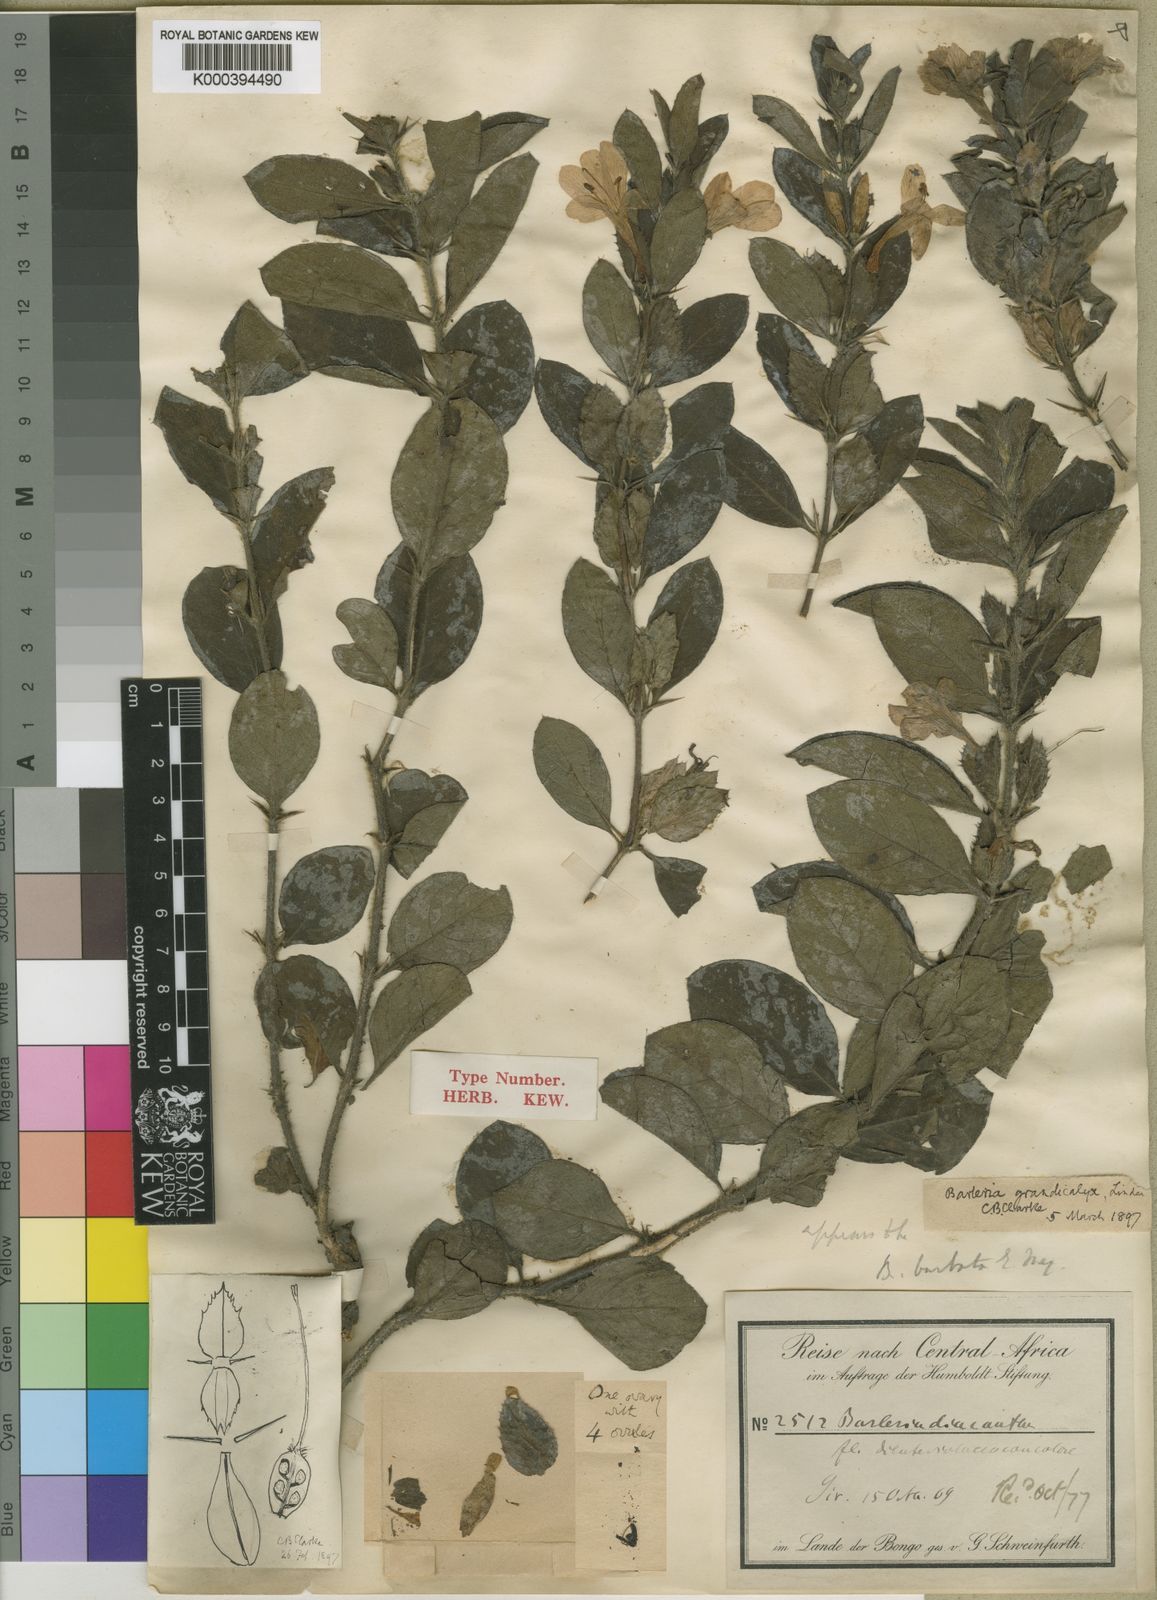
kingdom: Plantae
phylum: Tracheophyta
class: Magnoliopsida
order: Lamiales
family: Acanthaceae
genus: Barleria
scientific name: Barleria grandicalyx
